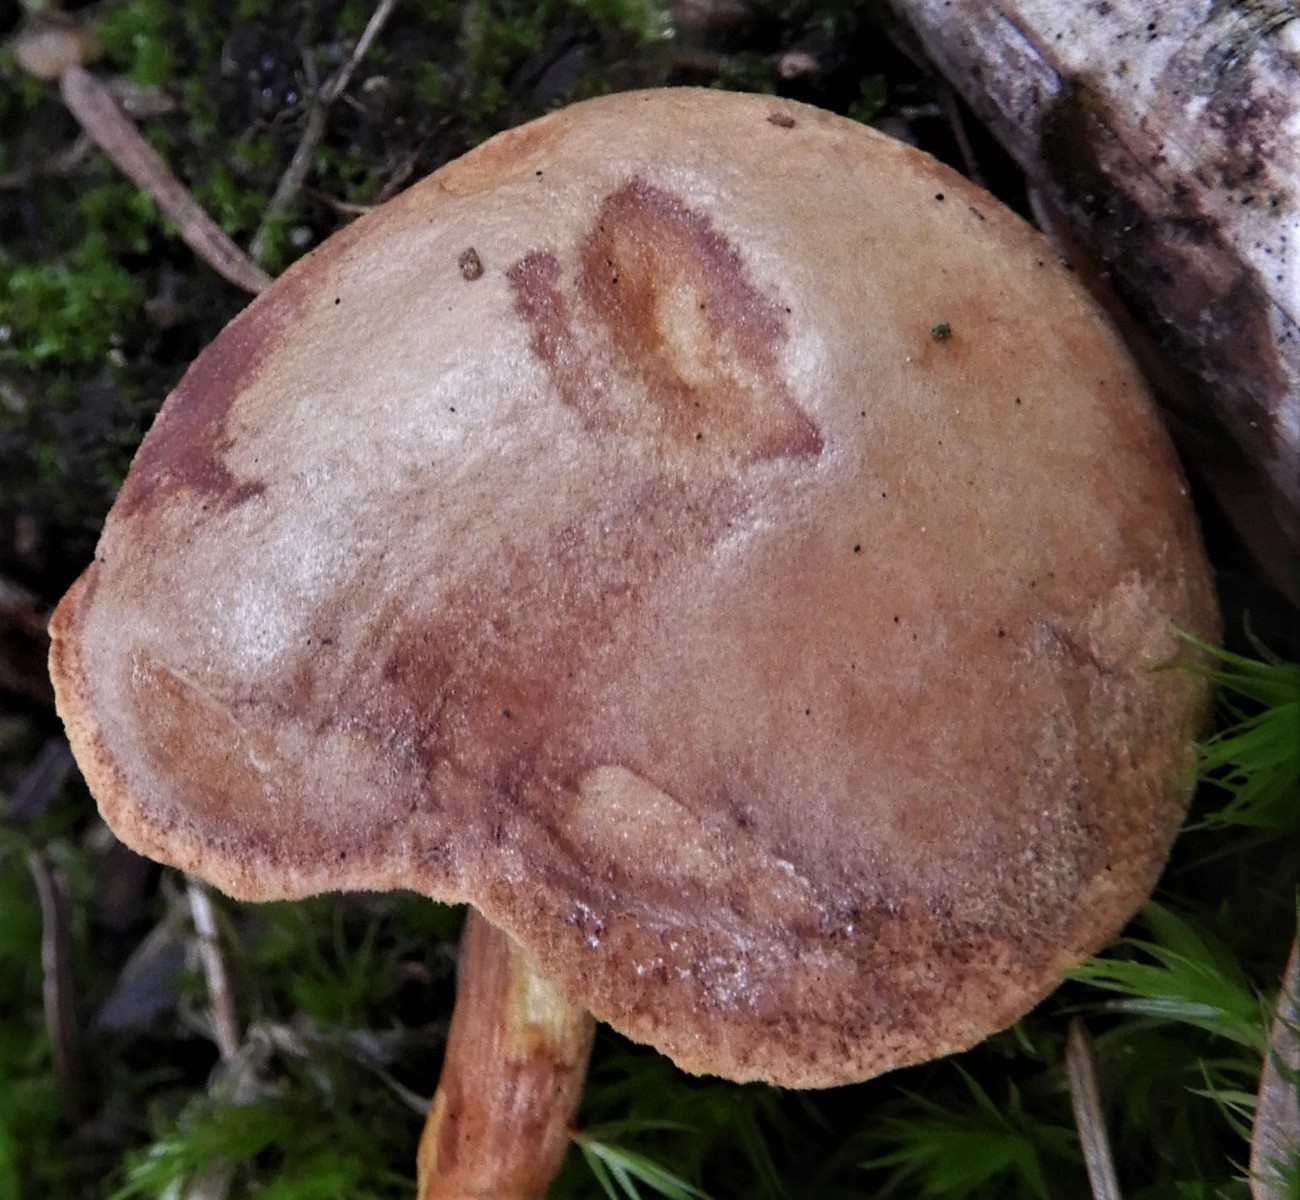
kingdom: Fungi
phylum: Basidiomycota
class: Agaricomycetes
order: Boletales
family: Boletaceae
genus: Chalciporus
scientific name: Chalciporus piperatus
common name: peberrørhat
